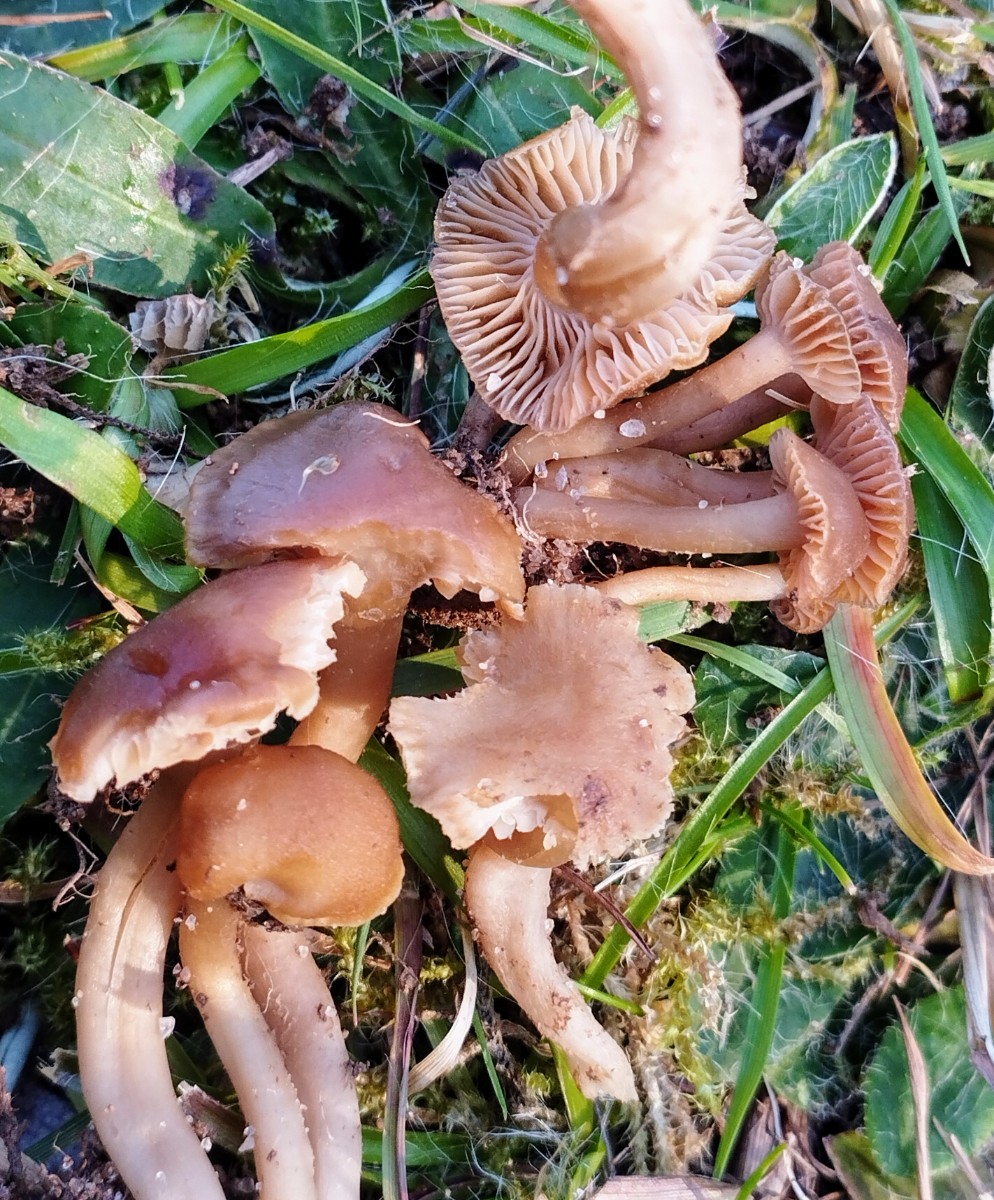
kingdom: Fungi
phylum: Basidiomycota
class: Agaricomycetes
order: Agaricales
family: Clavariaceae
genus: Camarophyllopsis
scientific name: Camarophyllopsis schulzeri
